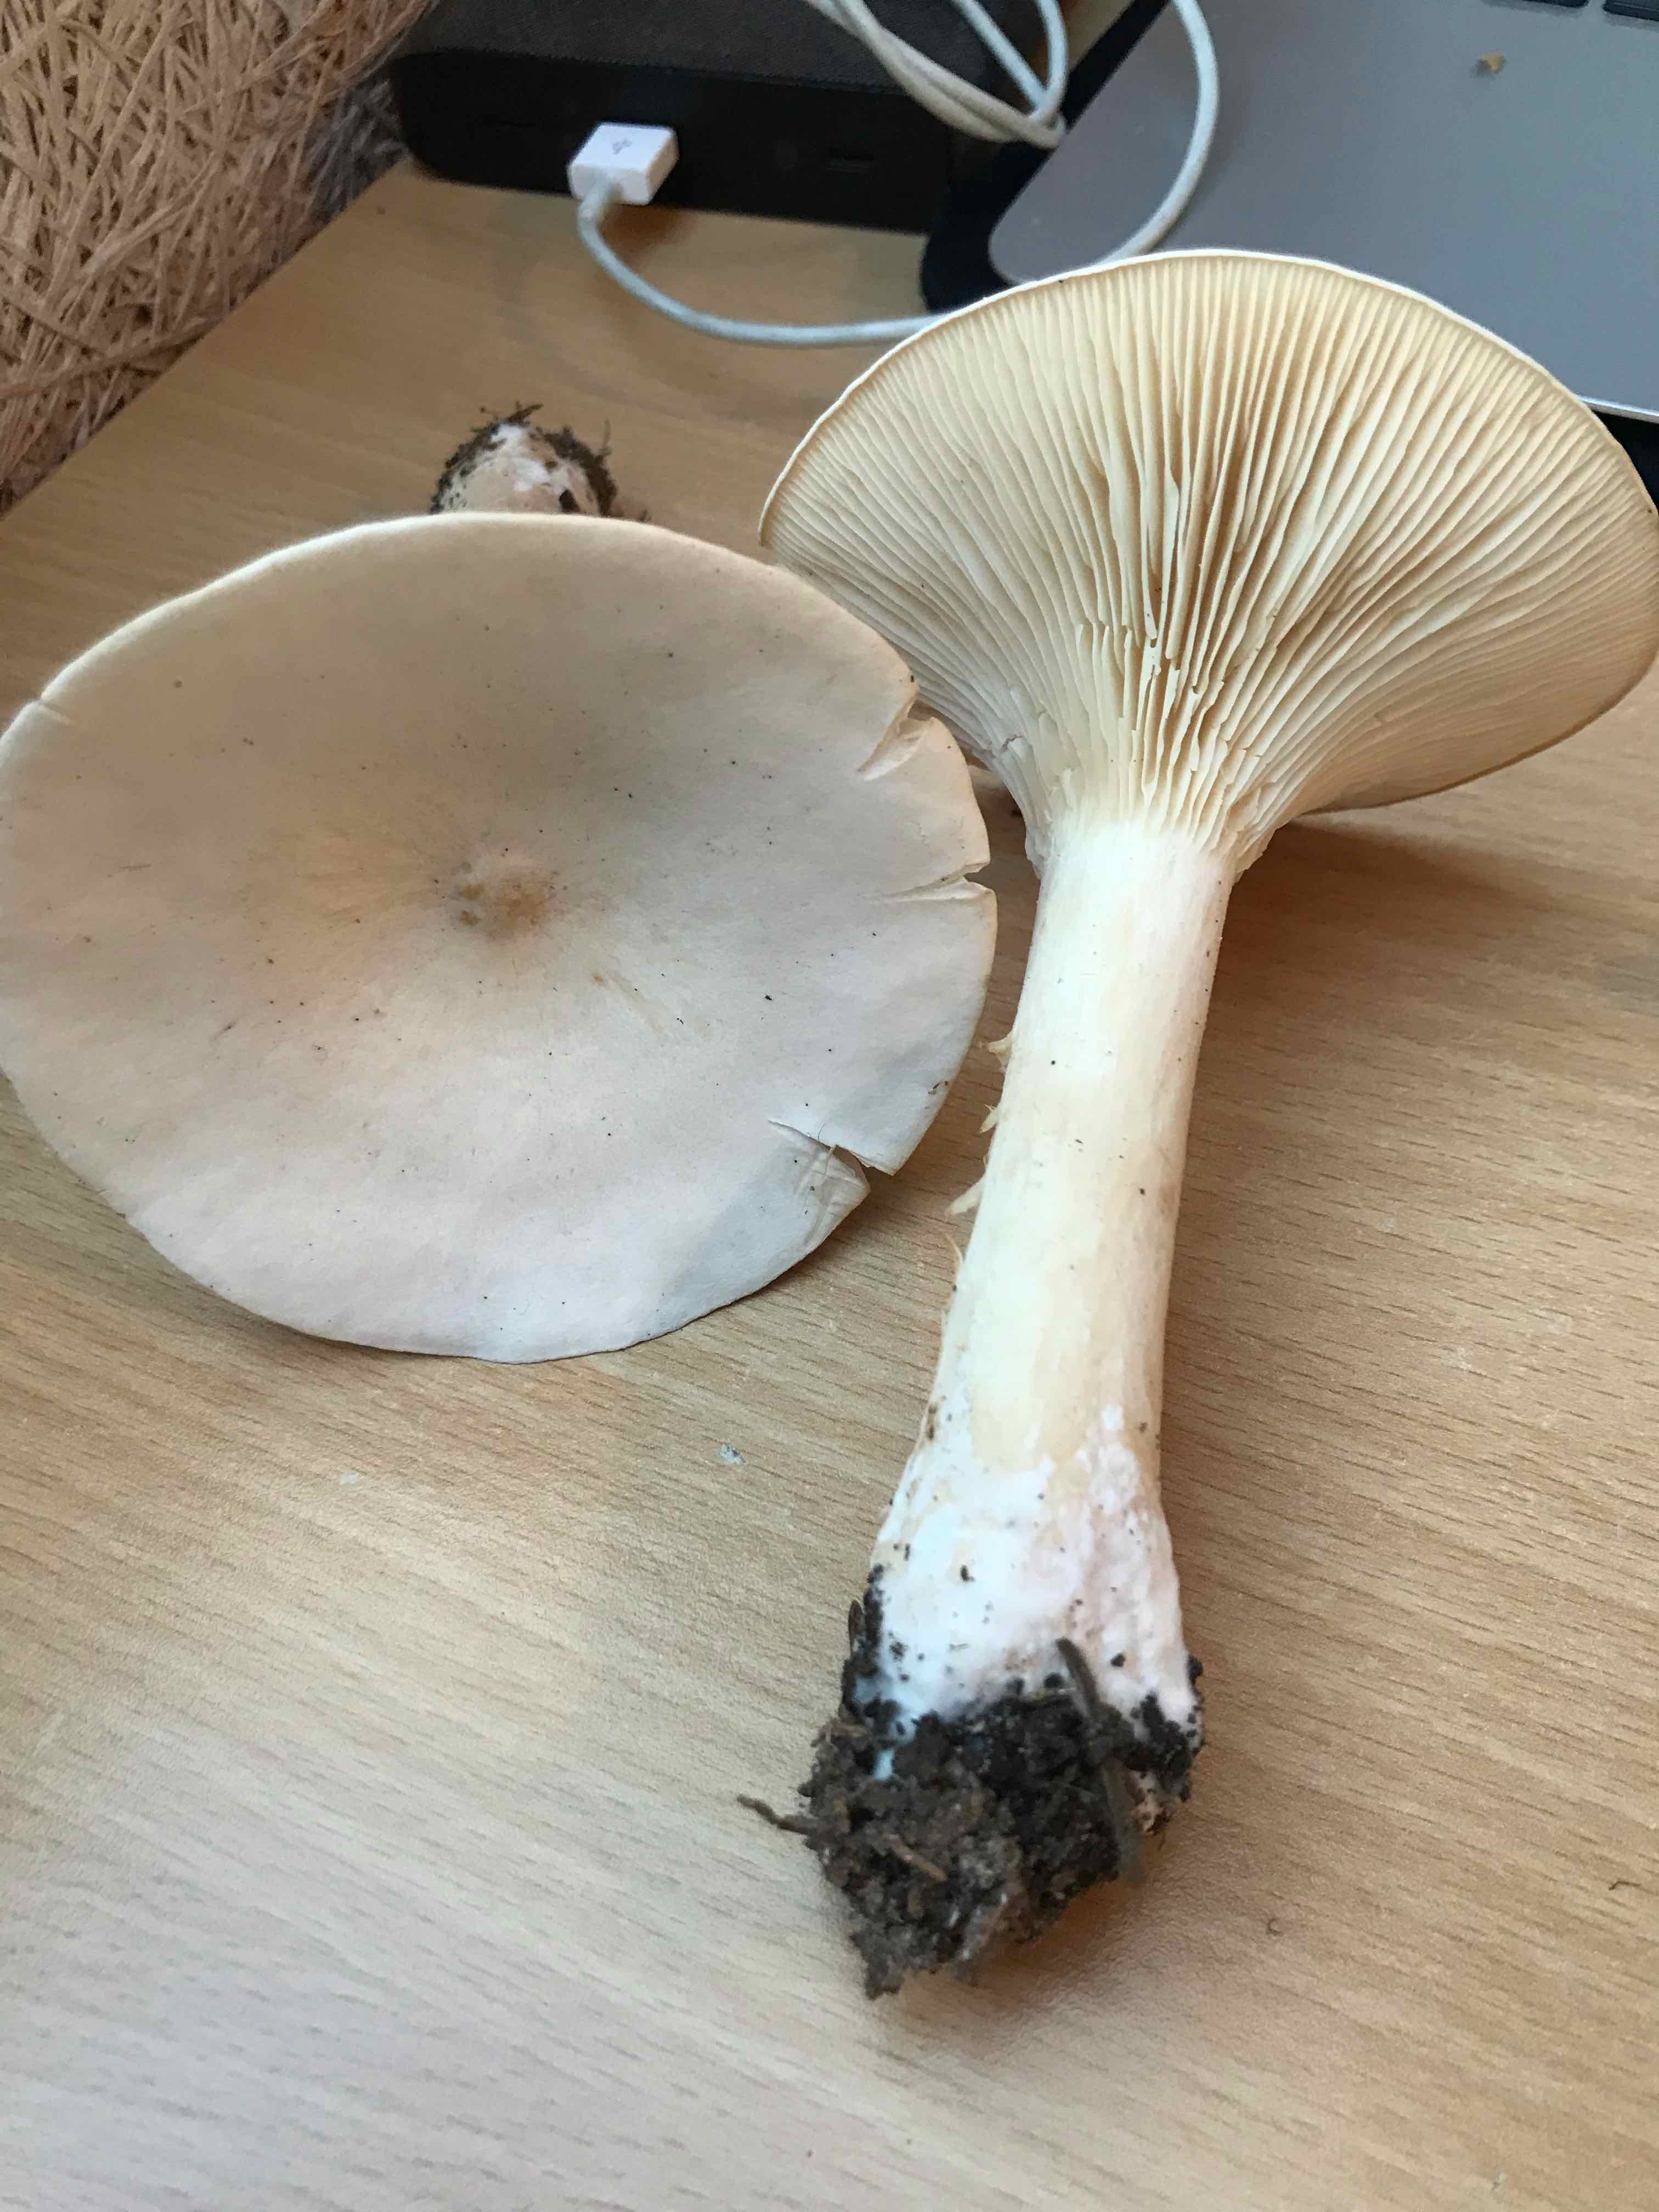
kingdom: Fungi
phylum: Basidiomycota
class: Agaricomycetes
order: Agaricales
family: Tricholomataceae
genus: Infundibulicybe
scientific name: Infundibulicybe geotropa
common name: stor tragthat
